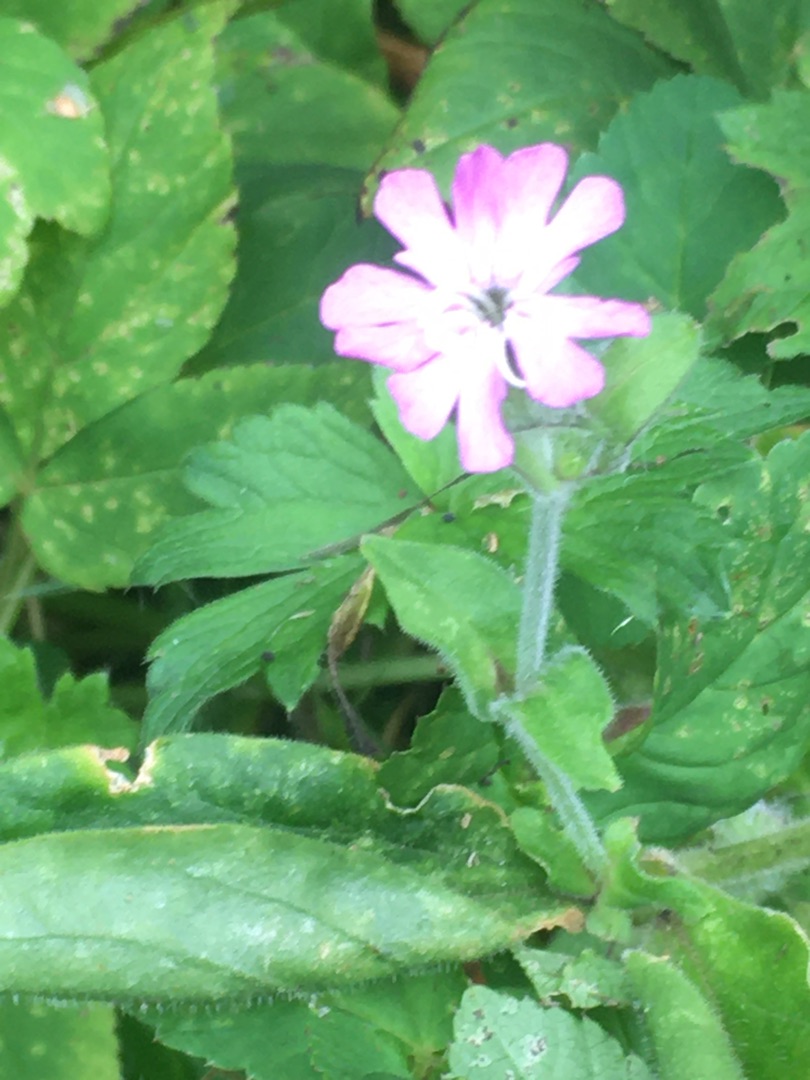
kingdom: Plantae
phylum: Tracheophyta
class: Magnoliopsida
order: Caryophyllales
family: Caryophyllaceae
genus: Silene
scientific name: Silene dioica
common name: Dagpragtstjerne
